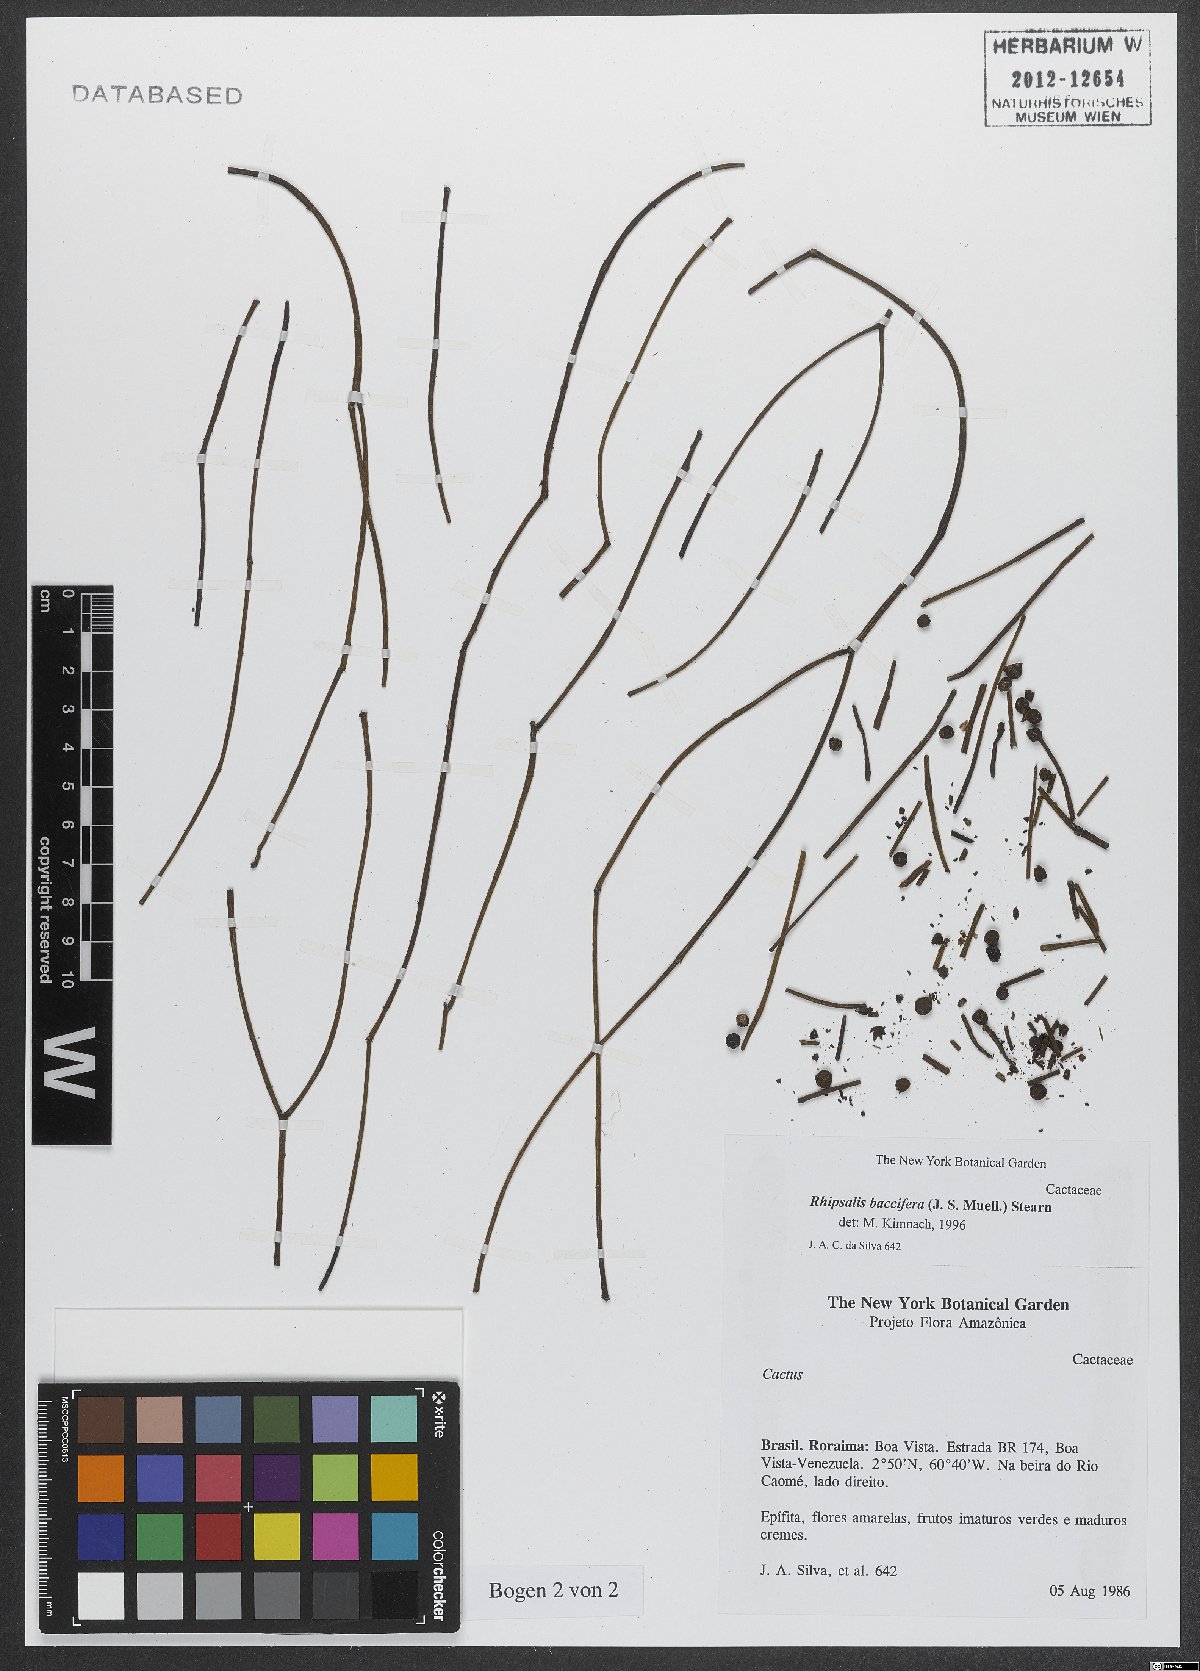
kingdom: Plantae
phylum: Tracheophyta
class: Magnoliopsida
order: Caryophyllales
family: Cactaceae
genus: Rhipsalis
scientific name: Rhipsalis baccifera
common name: Mistletoe cactus
